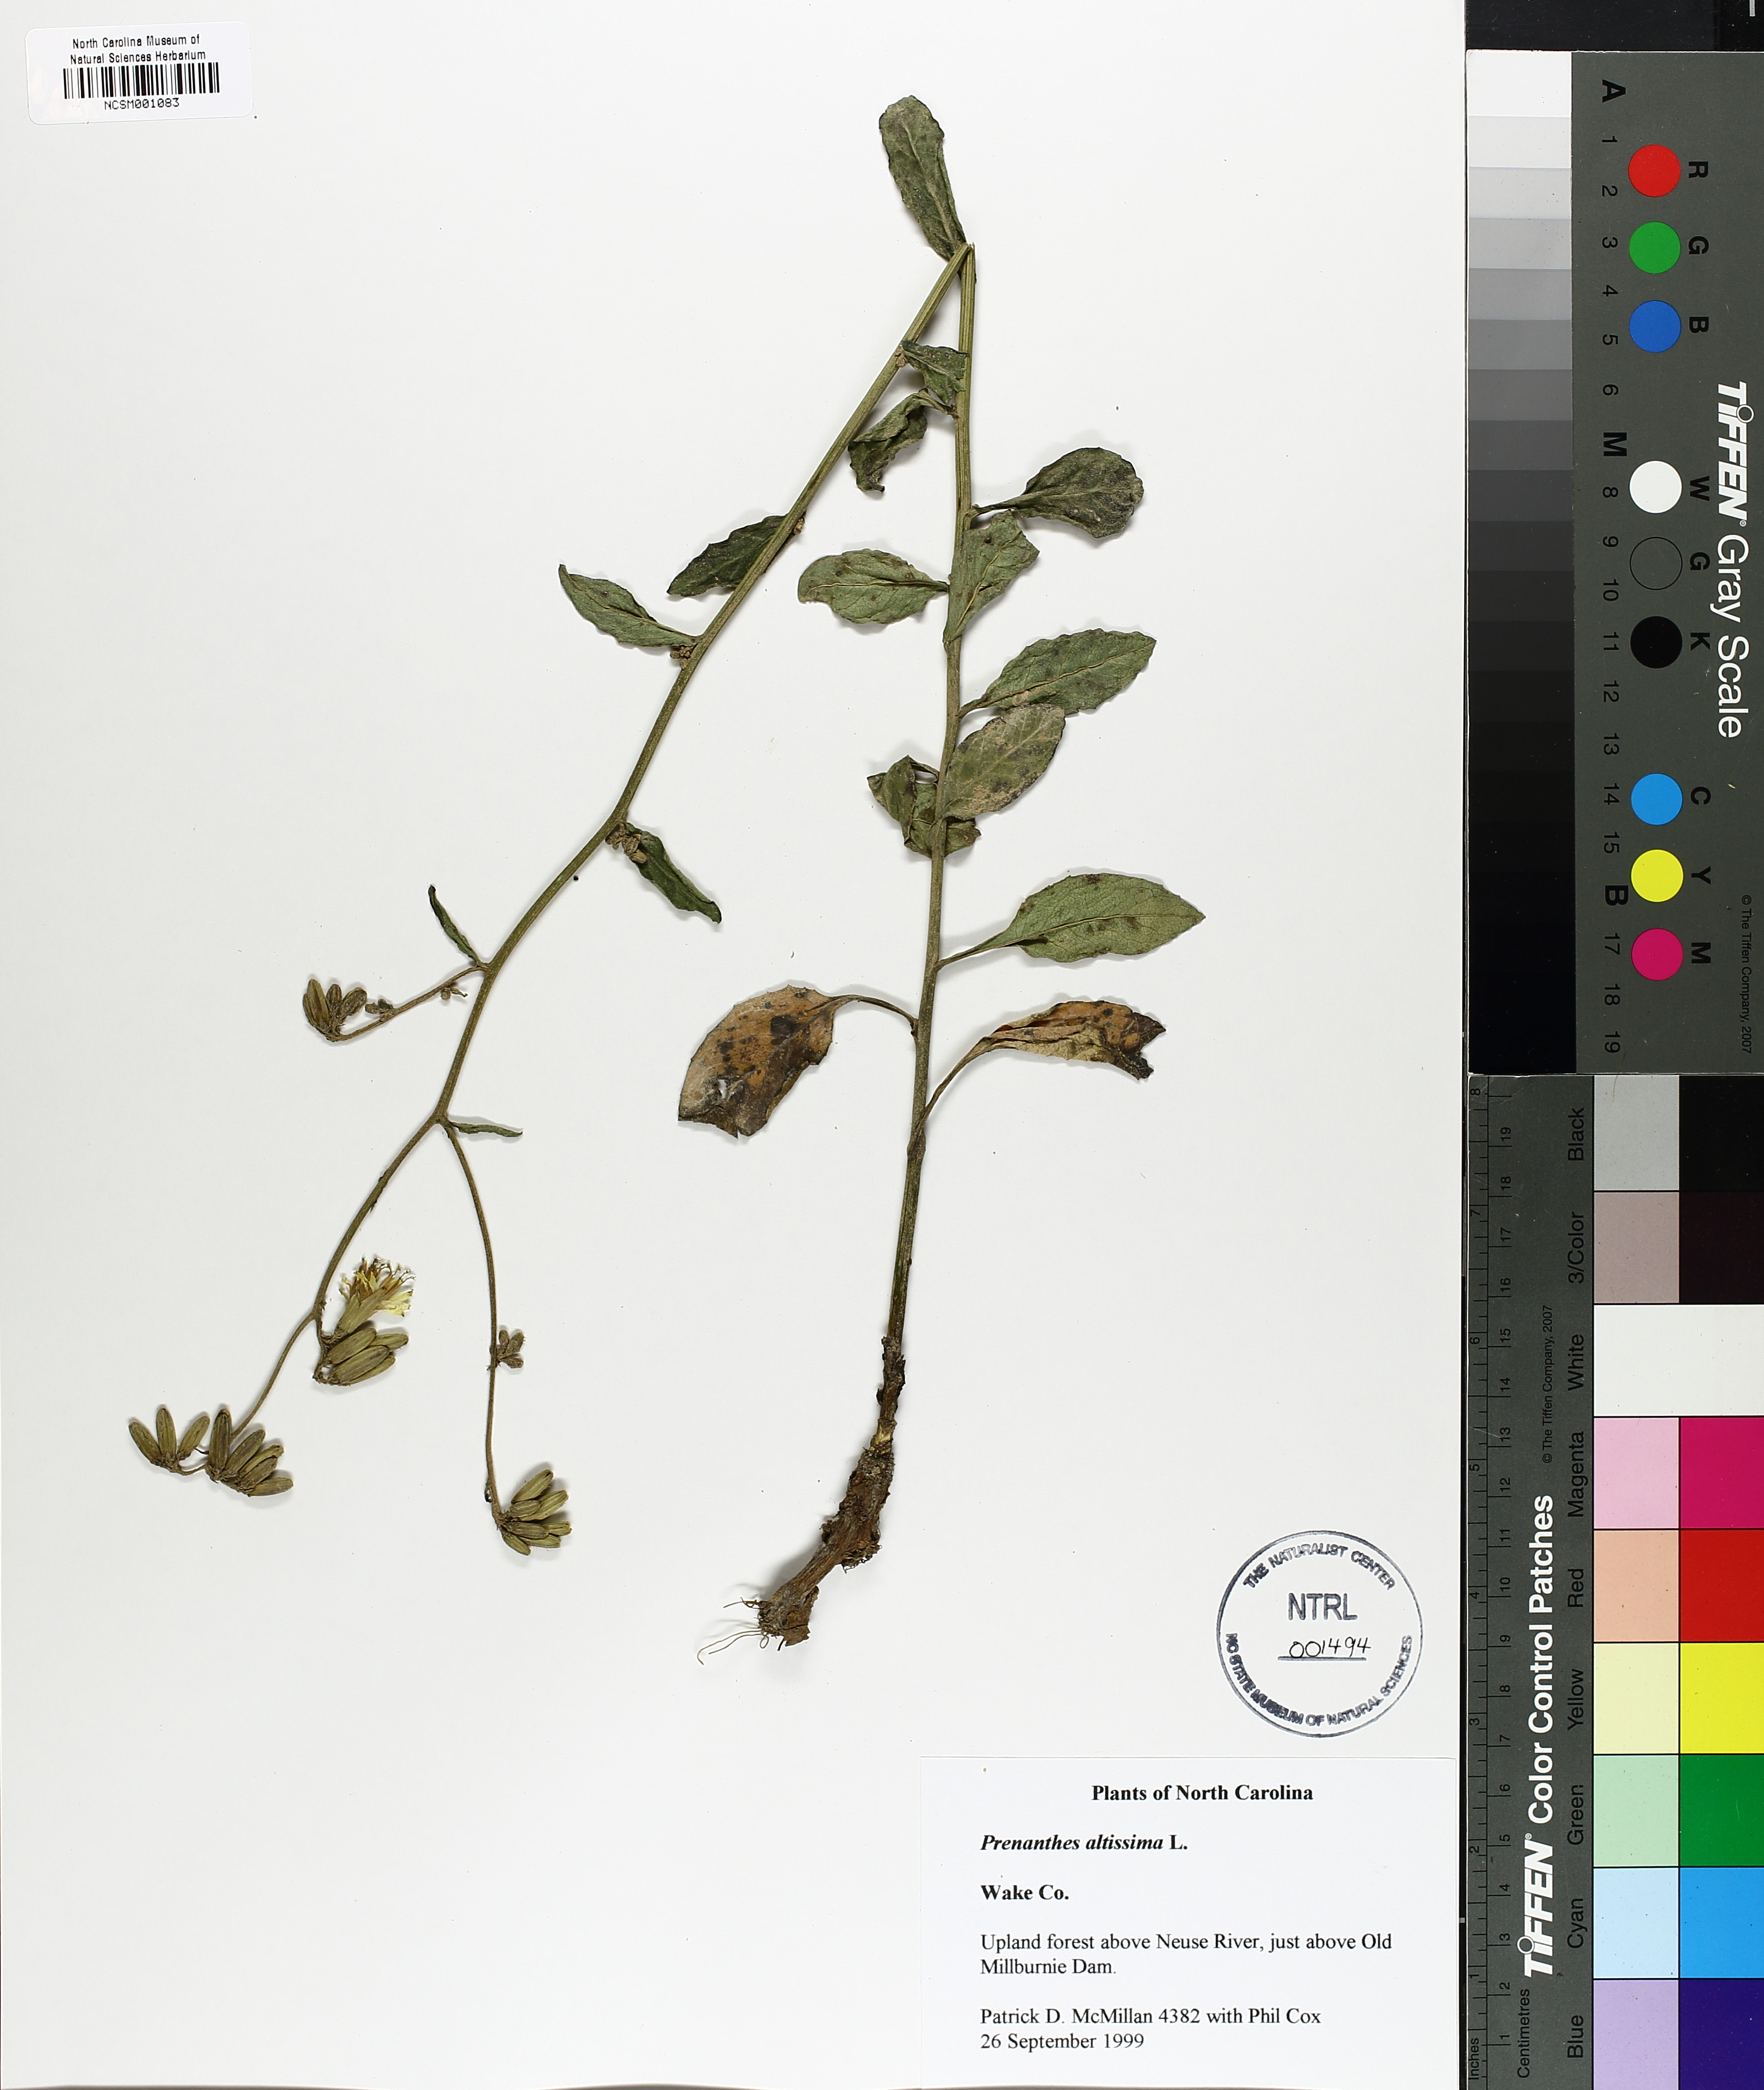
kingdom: Plantae
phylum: Tracheophyta
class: Magnoliopsida
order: Asterales
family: Asteraceae
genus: Lactuca
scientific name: Lactuca quercina
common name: Wild lettuce
